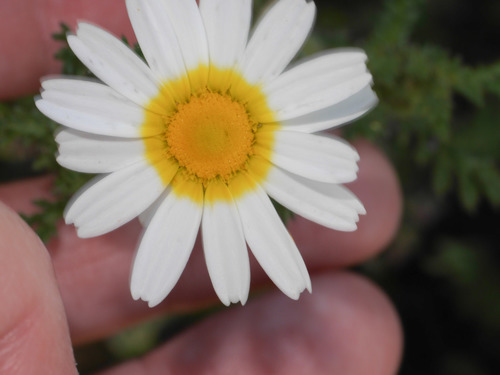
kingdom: Plantae
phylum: Tracheophyta
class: Magnoliopsida
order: Asterales
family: Asteraceae
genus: Cladanthus
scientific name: Cladanthus mixtus
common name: Weedy dogfennel
